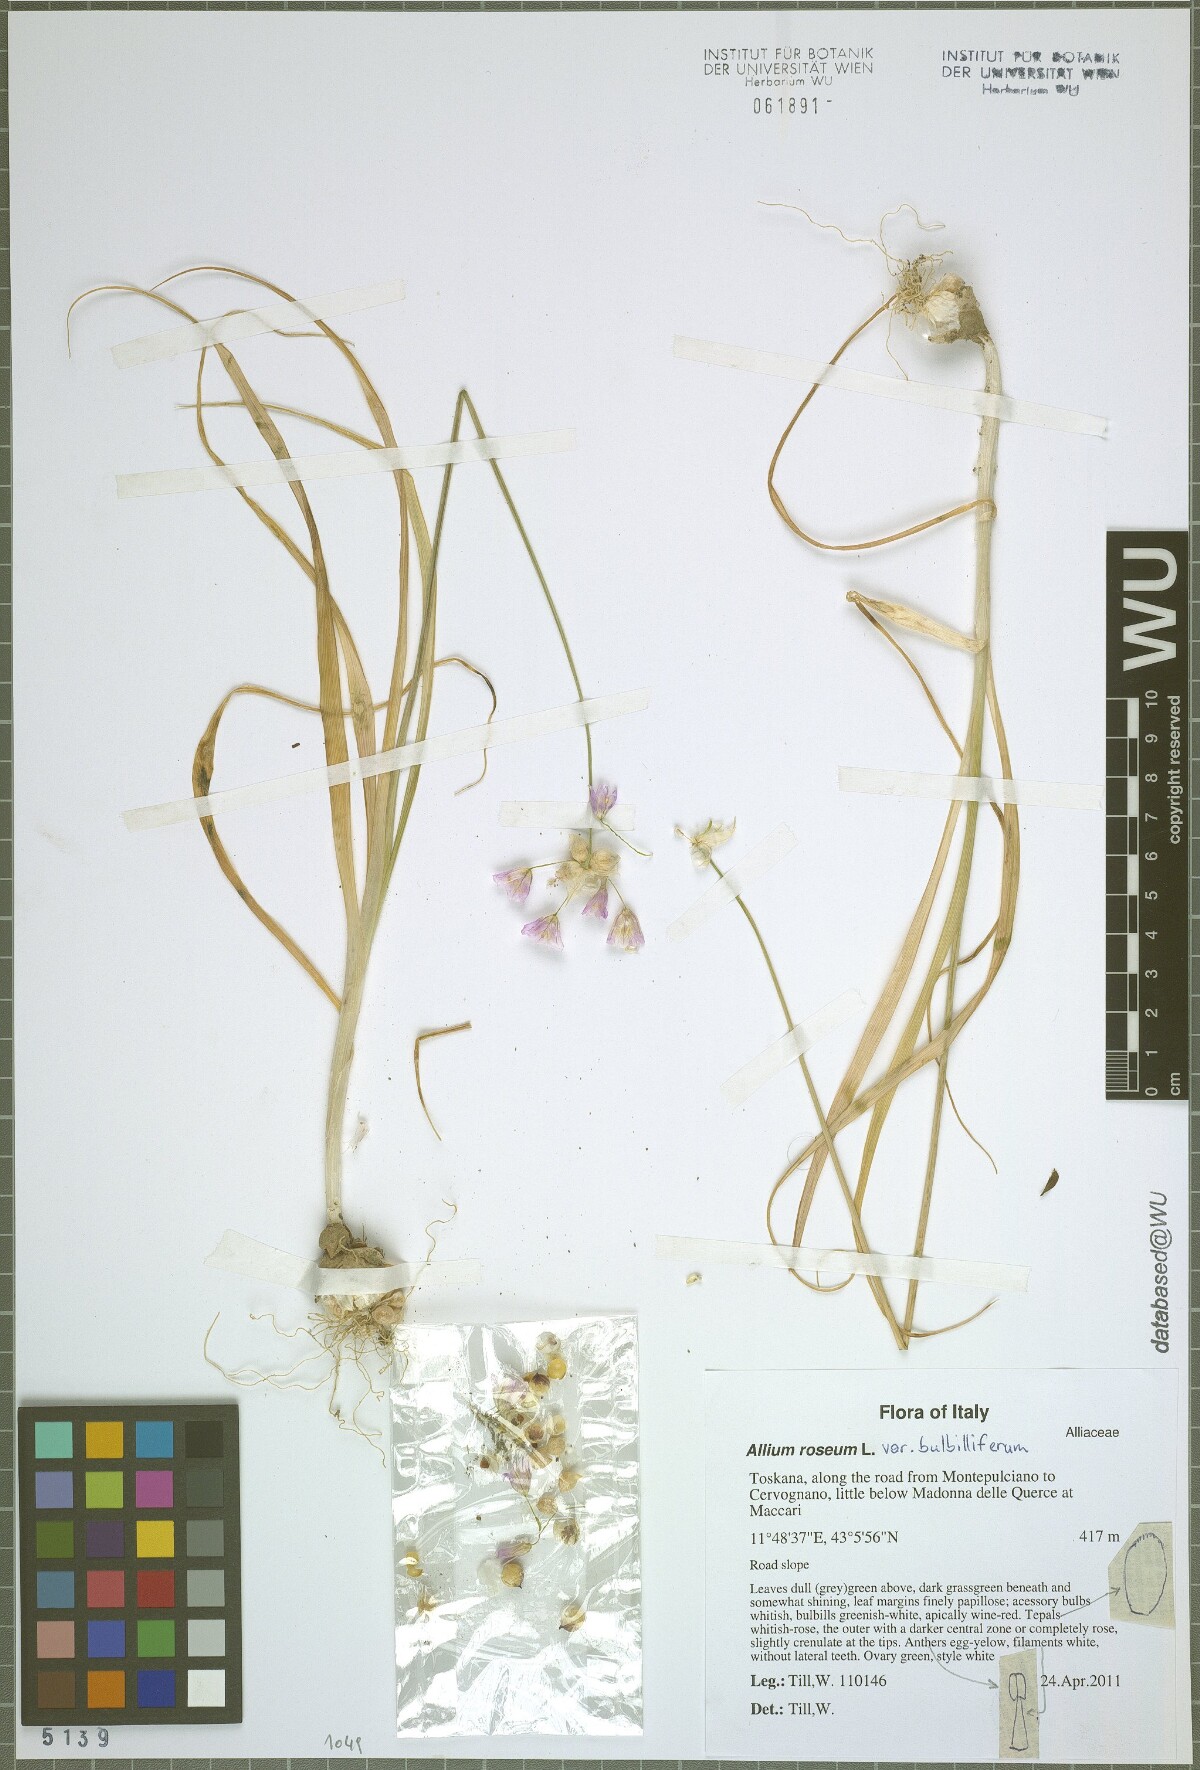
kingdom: Plantae
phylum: Tracheophyta
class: Liliopsida
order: Asparagales
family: Amaryllidaceae
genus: Allium
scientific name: Allium roseum
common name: Rosy garlic
